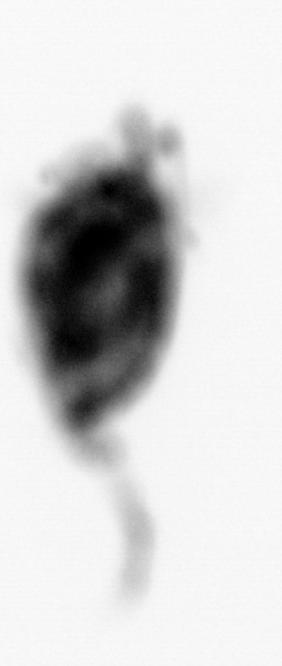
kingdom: Animalia
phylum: Arthropoda
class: Copepoda
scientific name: Copepoda
